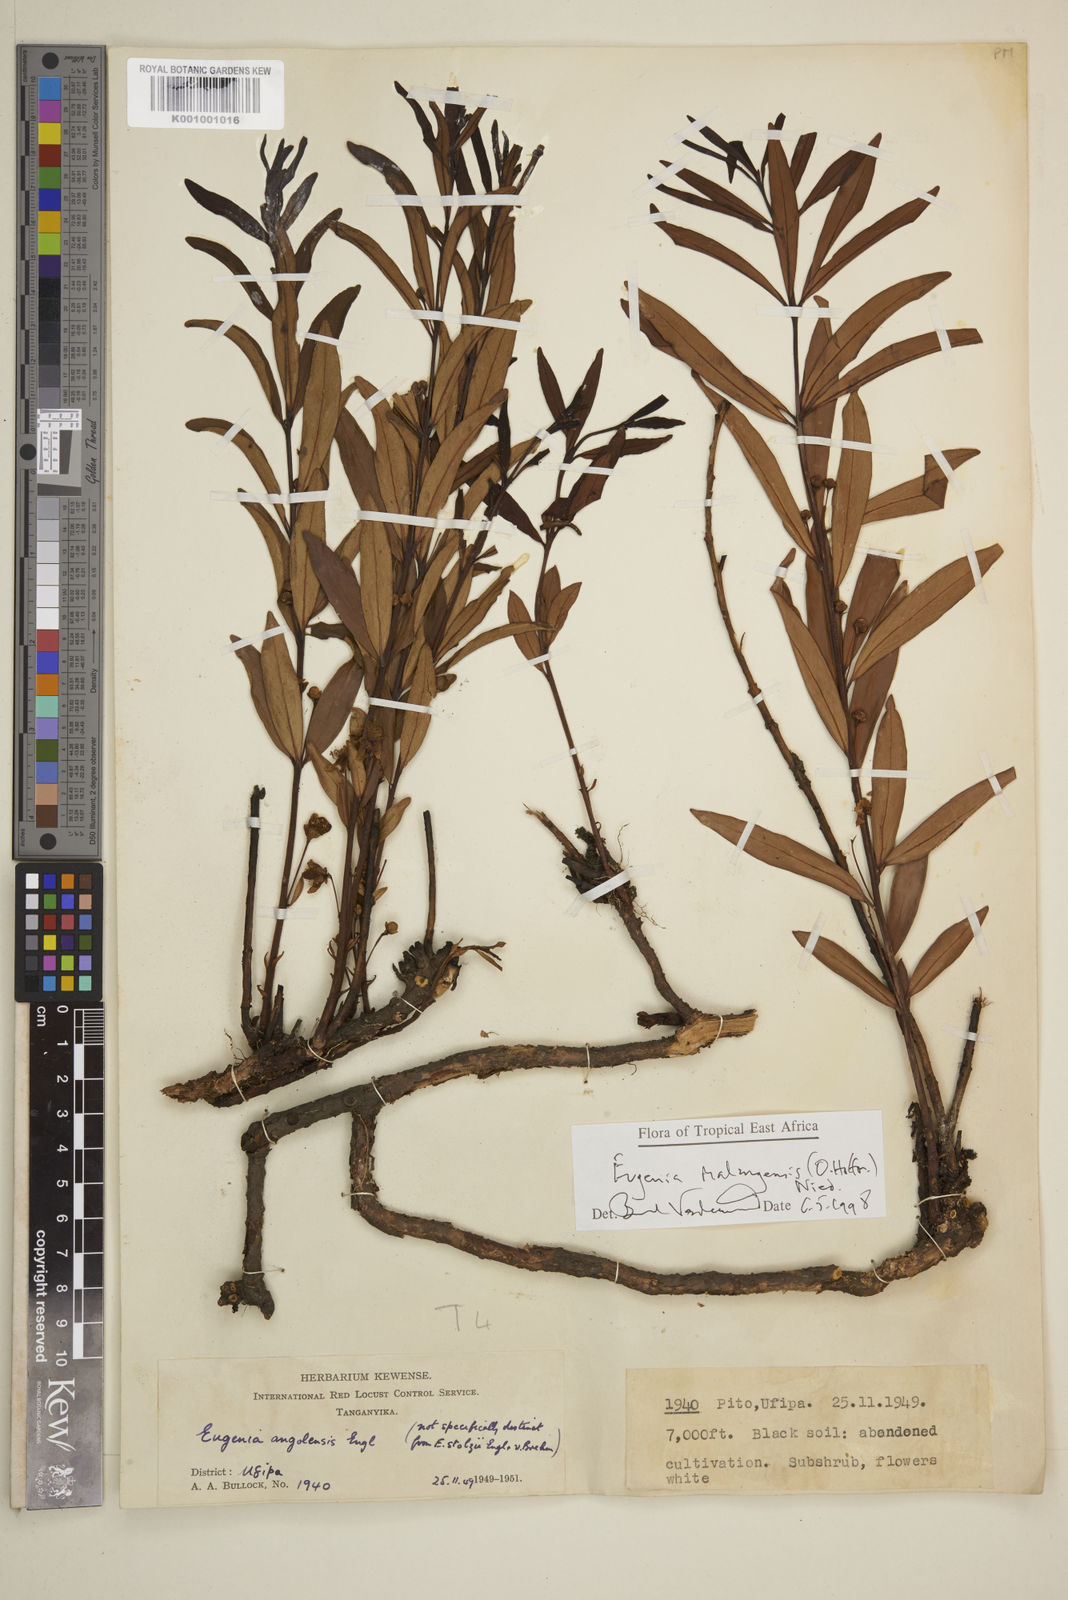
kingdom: Plantae
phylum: Tracheophyta
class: Magnoliopsida
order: Myrtales
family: Myrtaceae
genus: Eugenia
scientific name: Eugenia malangensis
